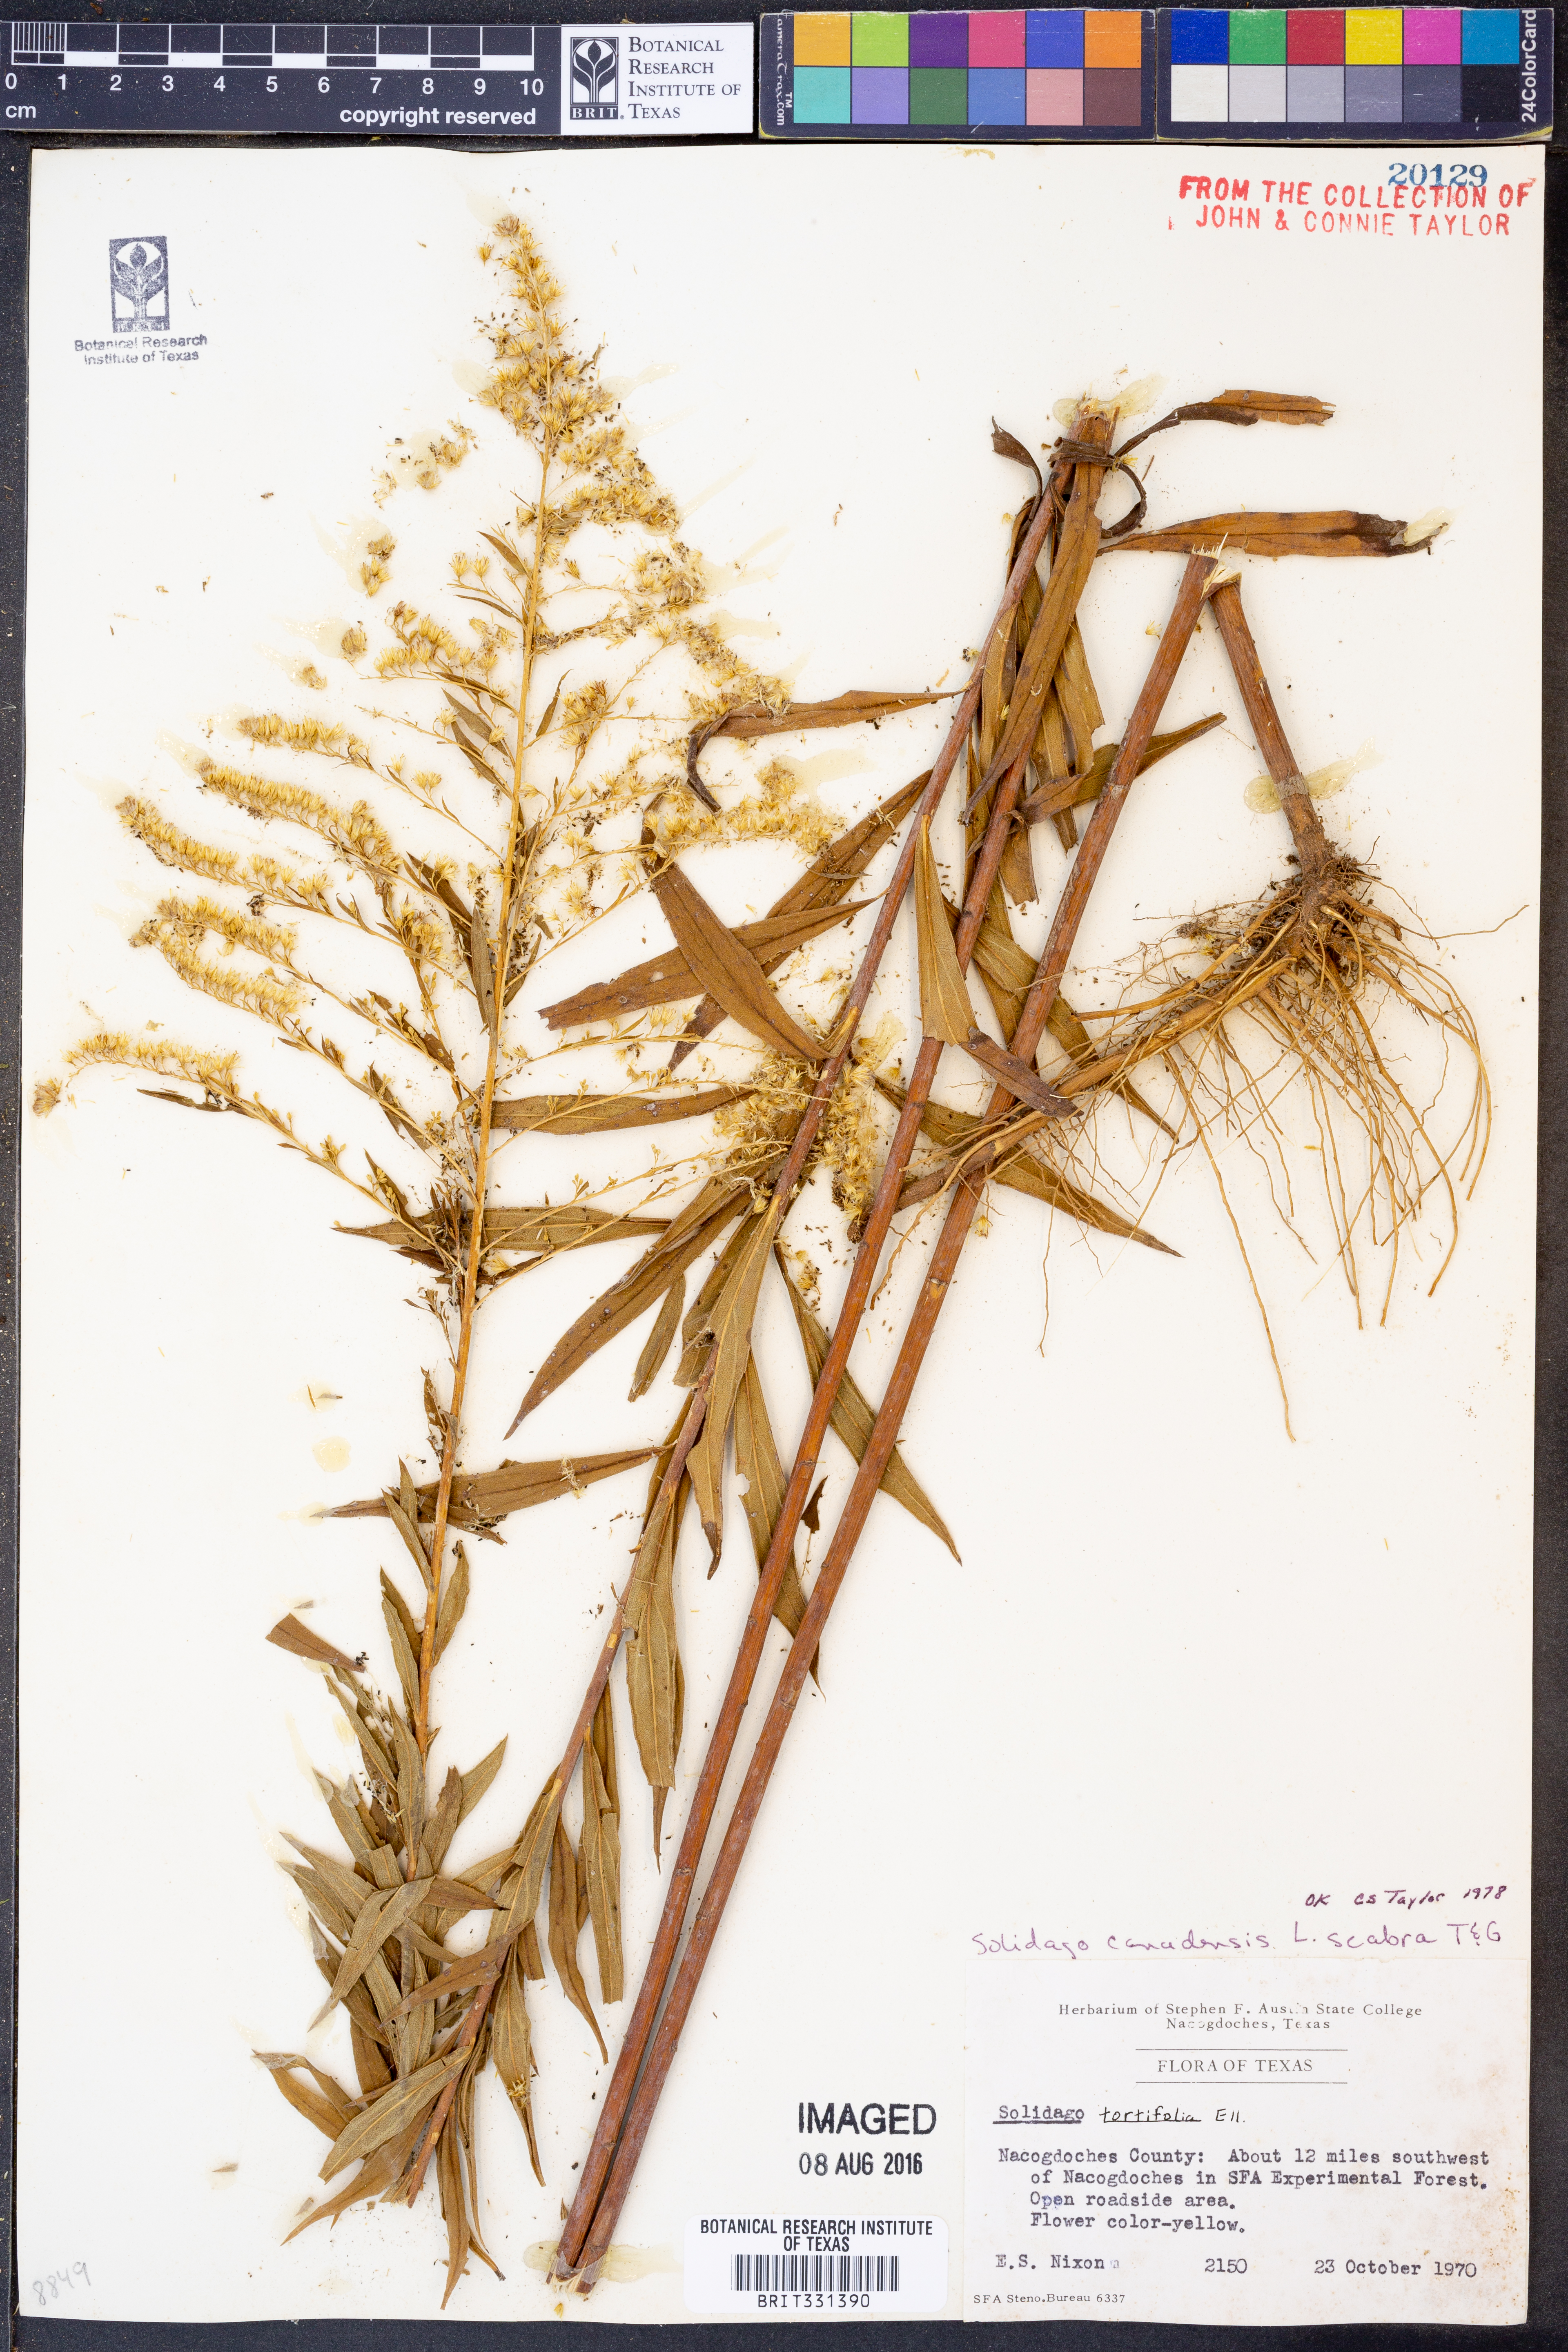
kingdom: Plantae
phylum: Tracheophyta
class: Magnoliopsida
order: Asterales
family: Asteraceae
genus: Solidago
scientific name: Solidago altissima
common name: Late goldenrod
